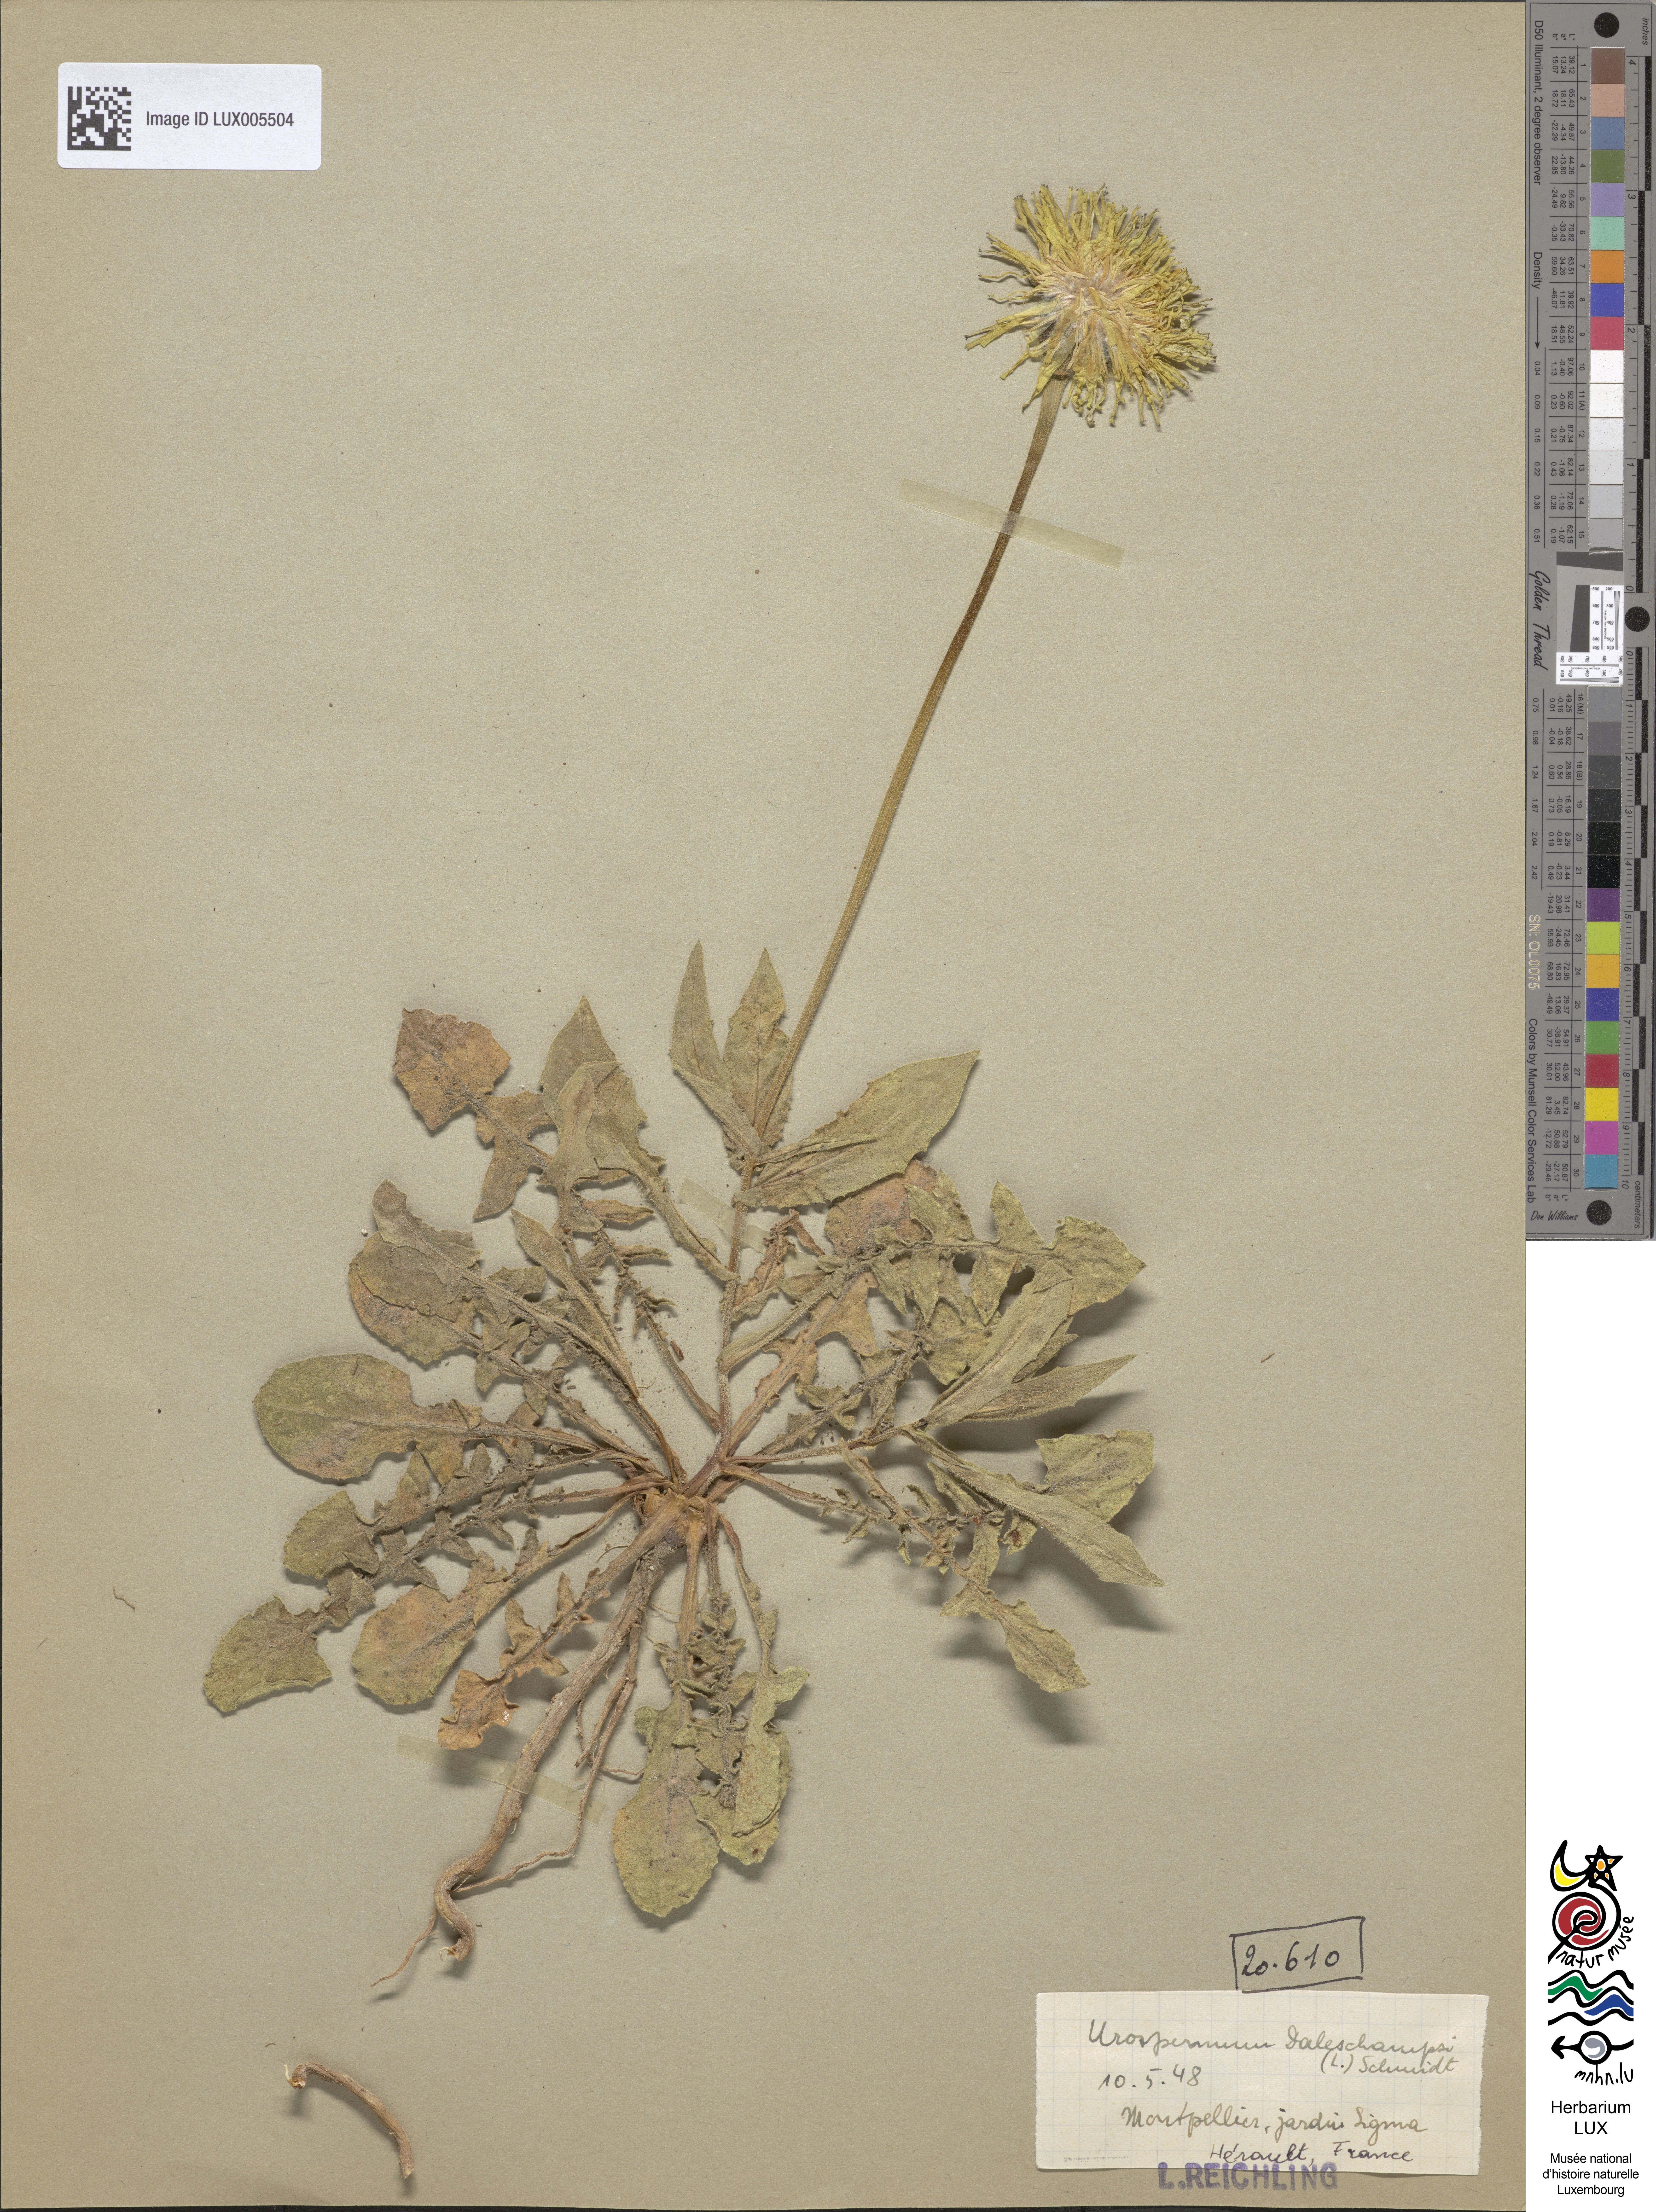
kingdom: Plantae
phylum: Tracheophyta
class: Magnoliopsida
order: Asterales
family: Asteraceae
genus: Urospermum
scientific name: Urospermum dalechampii
